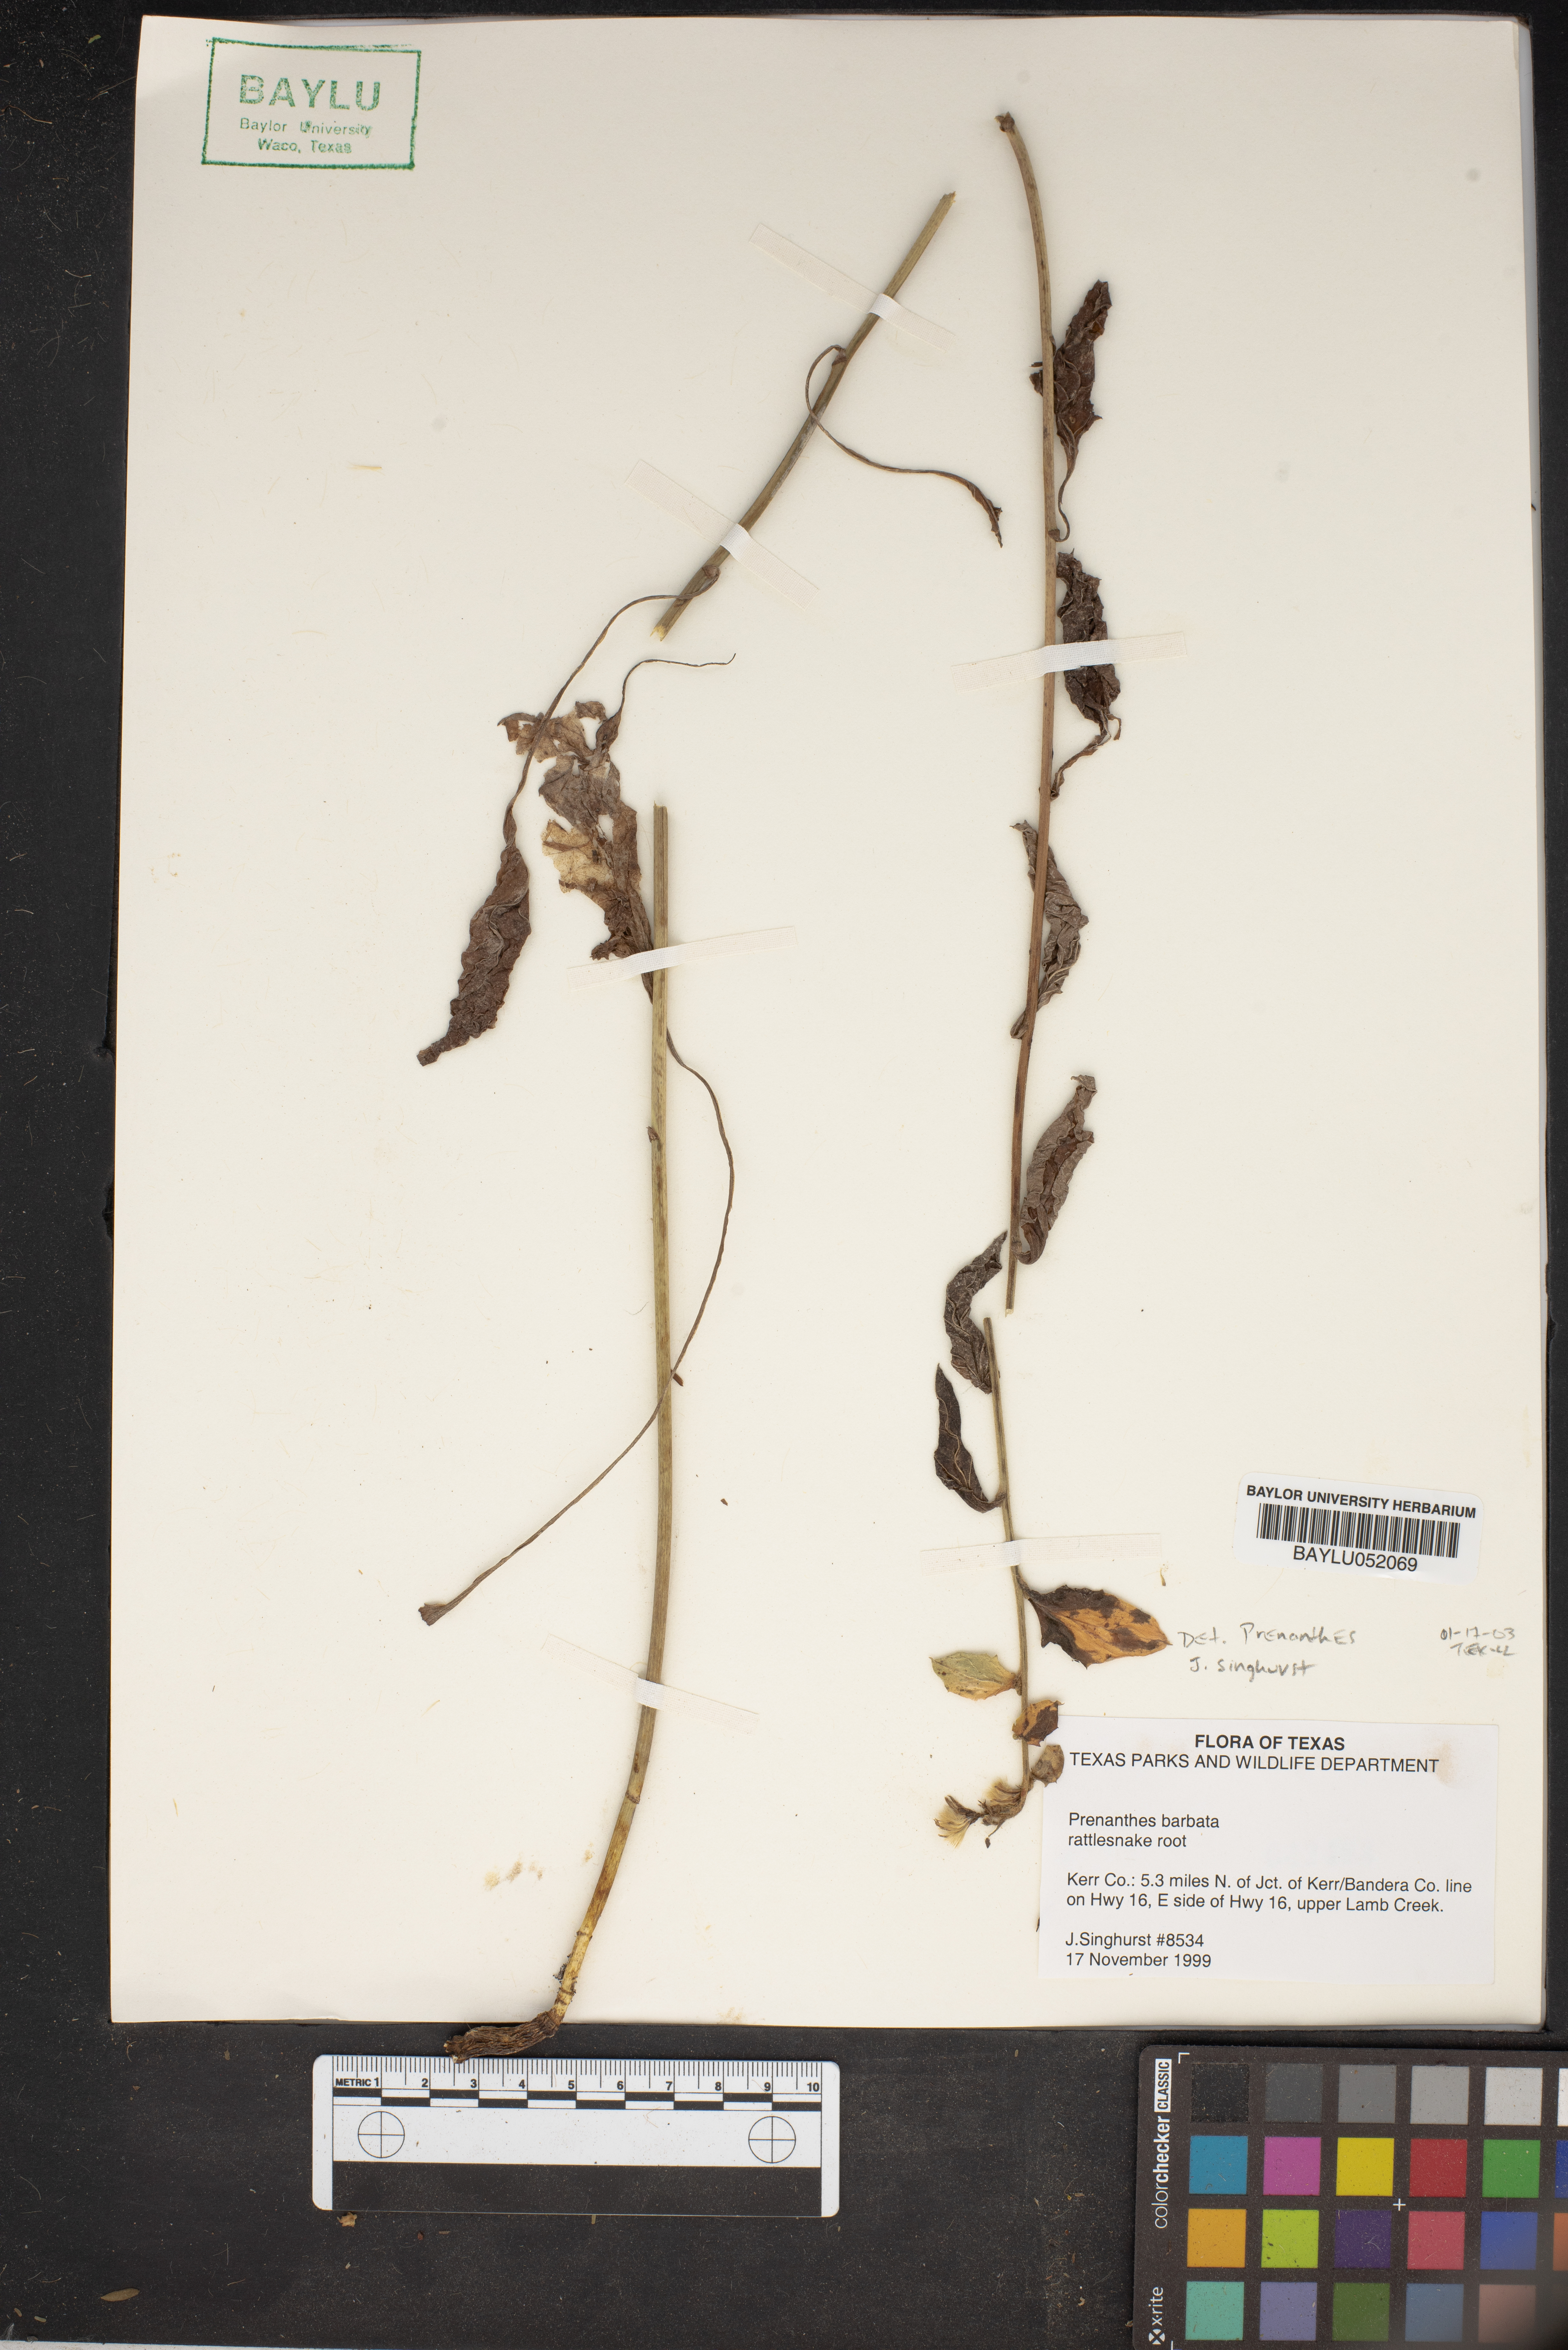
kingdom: Plantae
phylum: Tracheophyta
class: Magnoliopsida
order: Asterales
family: Asteraceae
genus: Nabalus
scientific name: Nabalus barbata
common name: Barbed rattlesnakeroot
